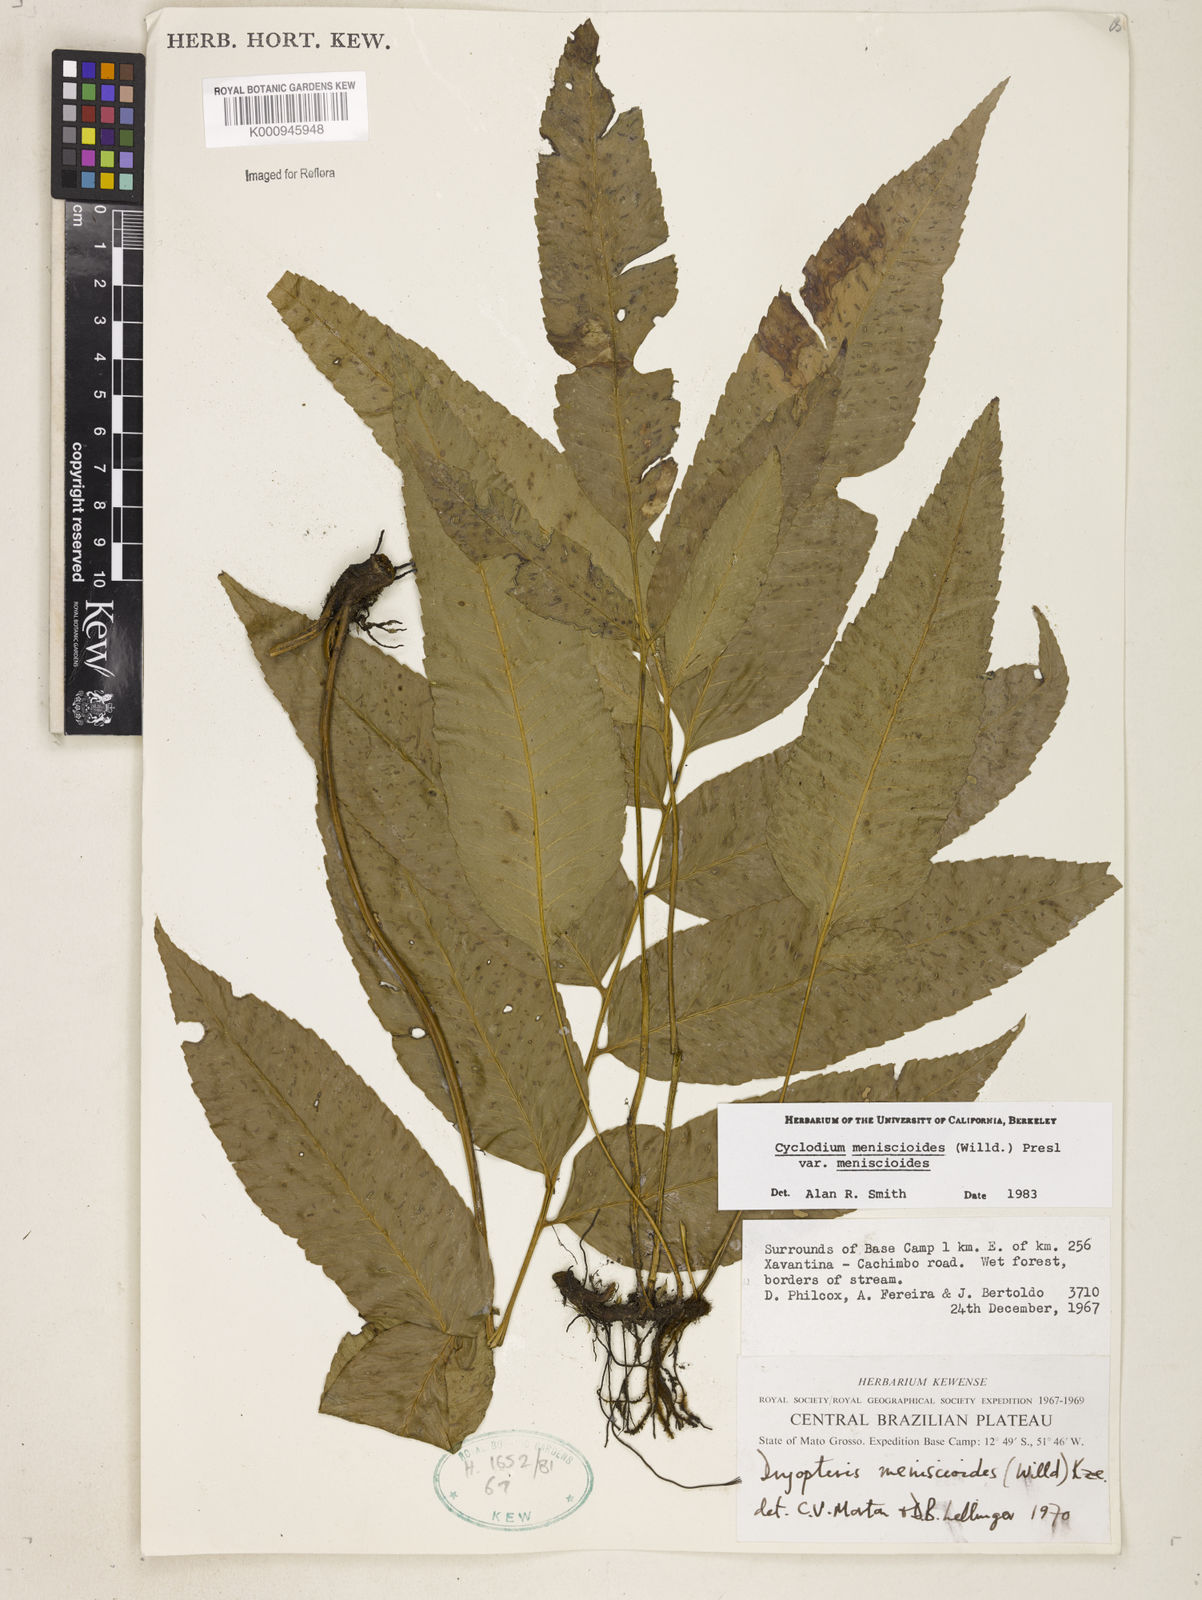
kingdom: Plantae
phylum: Tracheophyta
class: Polypodiopsida
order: Polypodiales
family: Dryopteridaceae
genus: Cyclodium
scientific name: Cyclodium meniscioides
